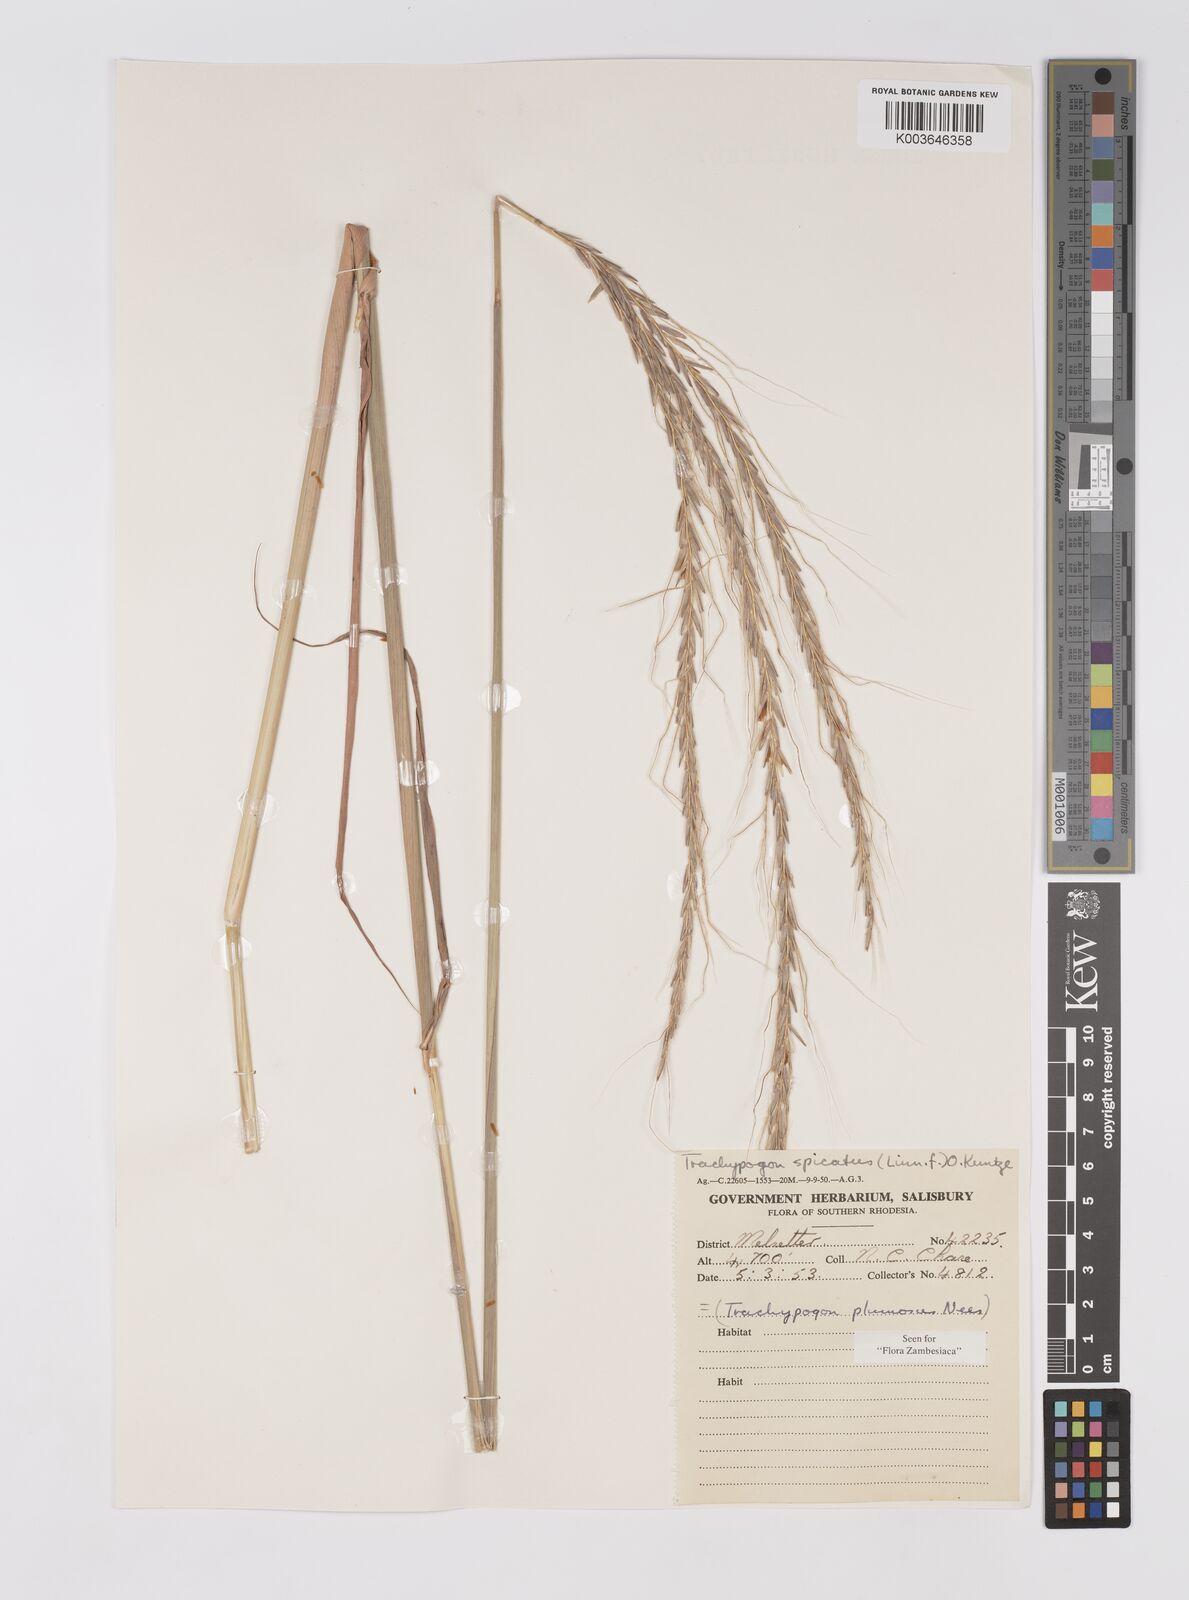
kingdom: Plantae
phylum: Tracheophyta
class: Liliopsida
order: Poales
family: Poaceae
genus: Trachypogon
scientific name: Trachypogon spicatus
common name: Crinkle-awn
